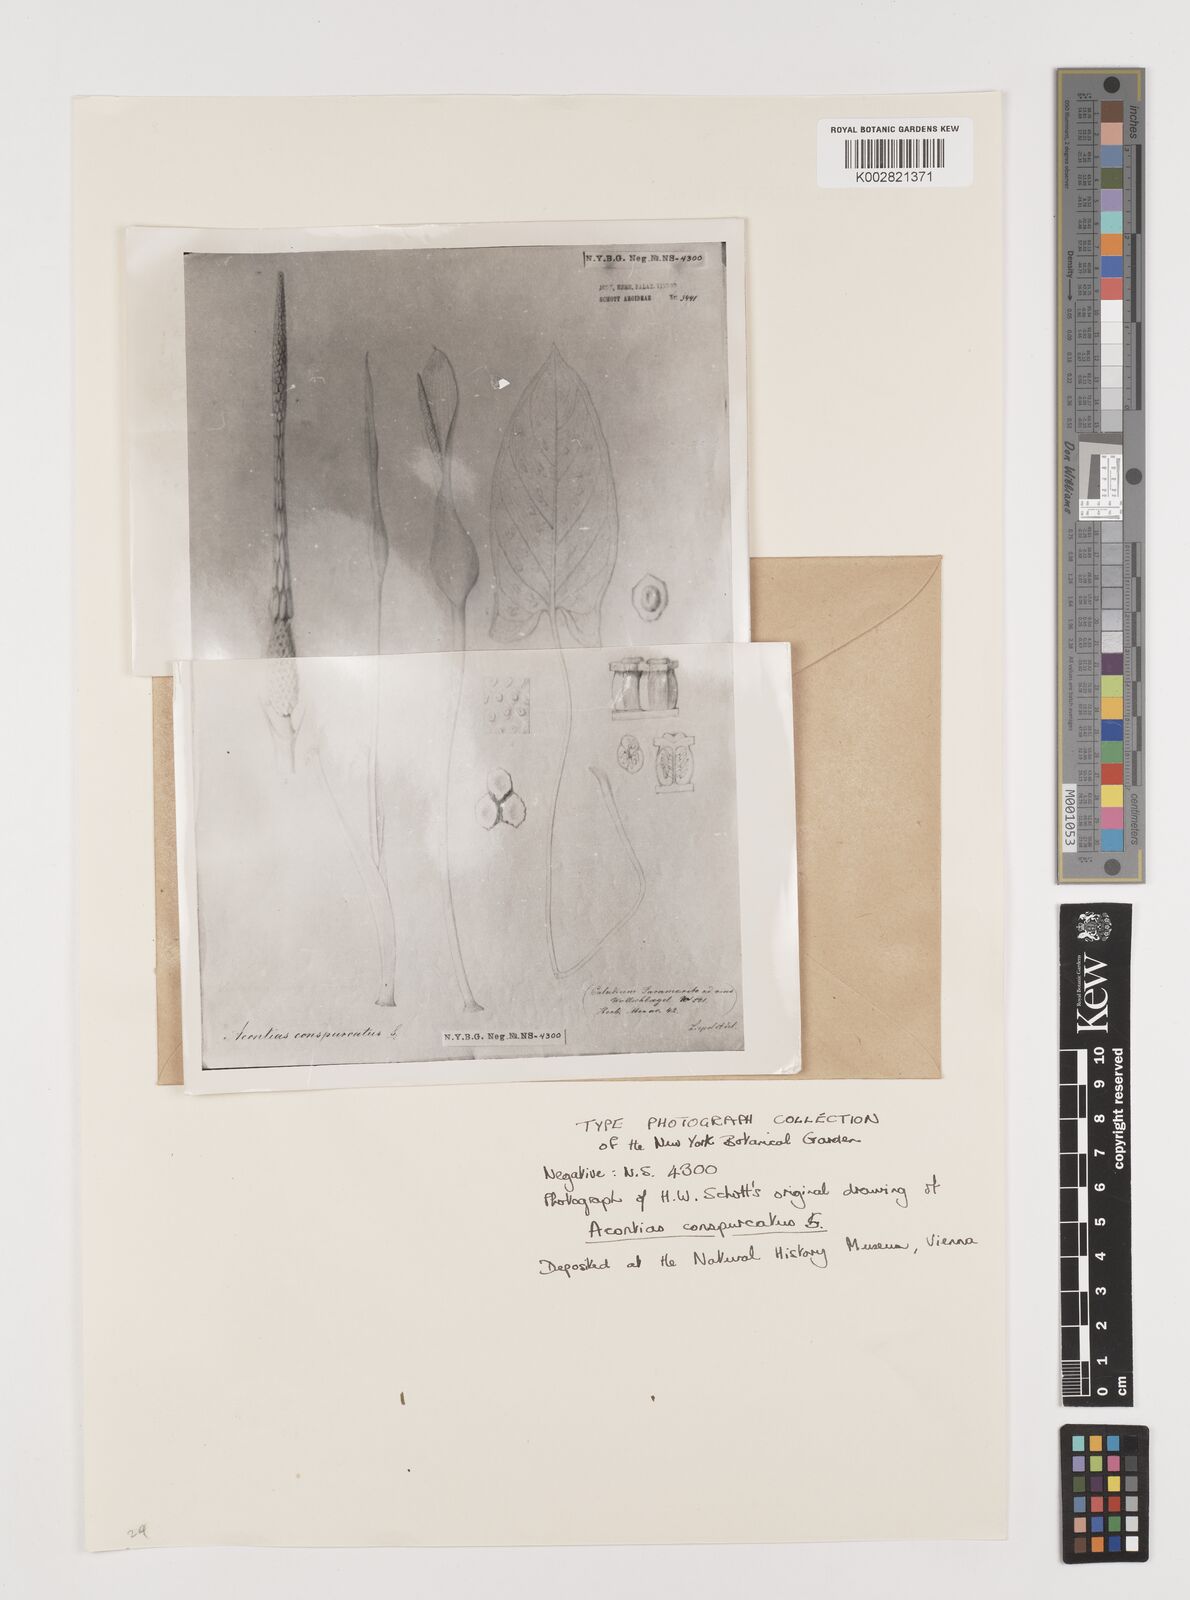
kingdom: Plantae
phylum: Tracheophyta
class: Liliopsida
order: Alismatales
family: Araceae
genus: Xanthosoma
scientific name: Xanthosoma conspurcatum
